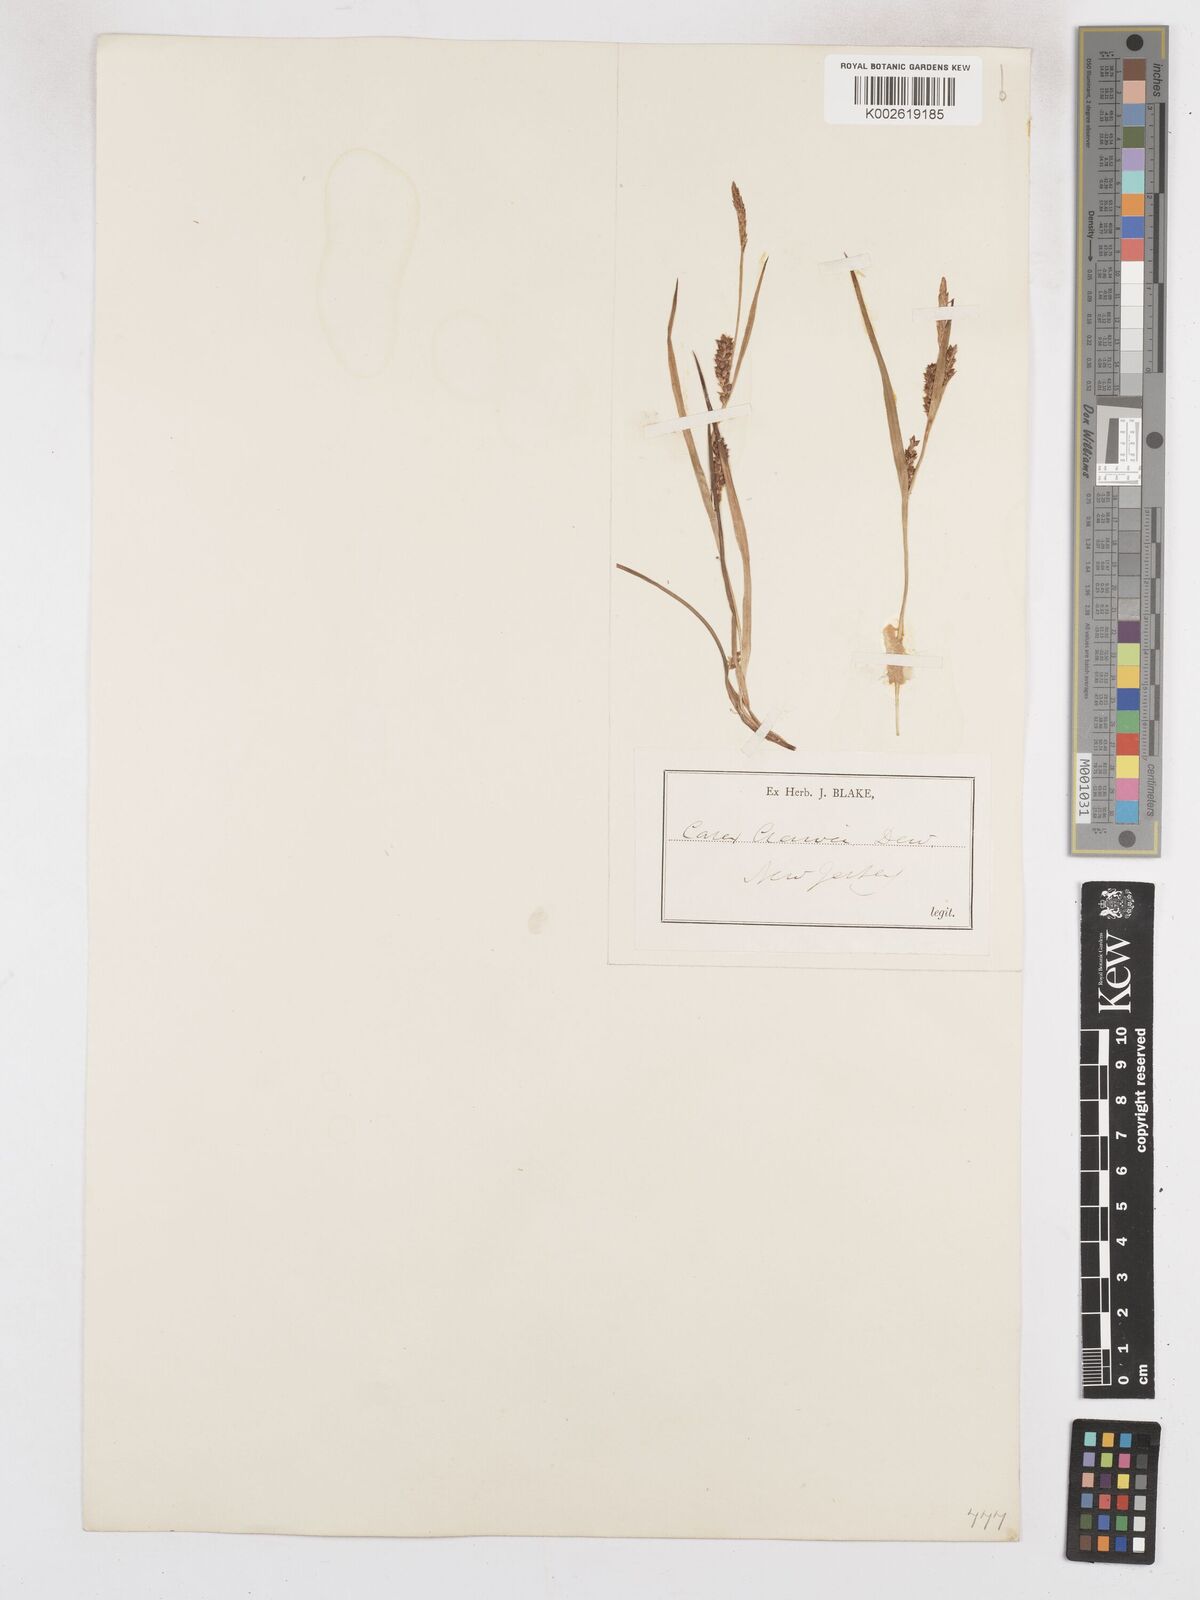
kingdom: Plantae
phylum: Tracheophyta
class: Liliopsida
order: Poales
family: Cyperaceae
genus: Carex
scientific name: Carex crawei
